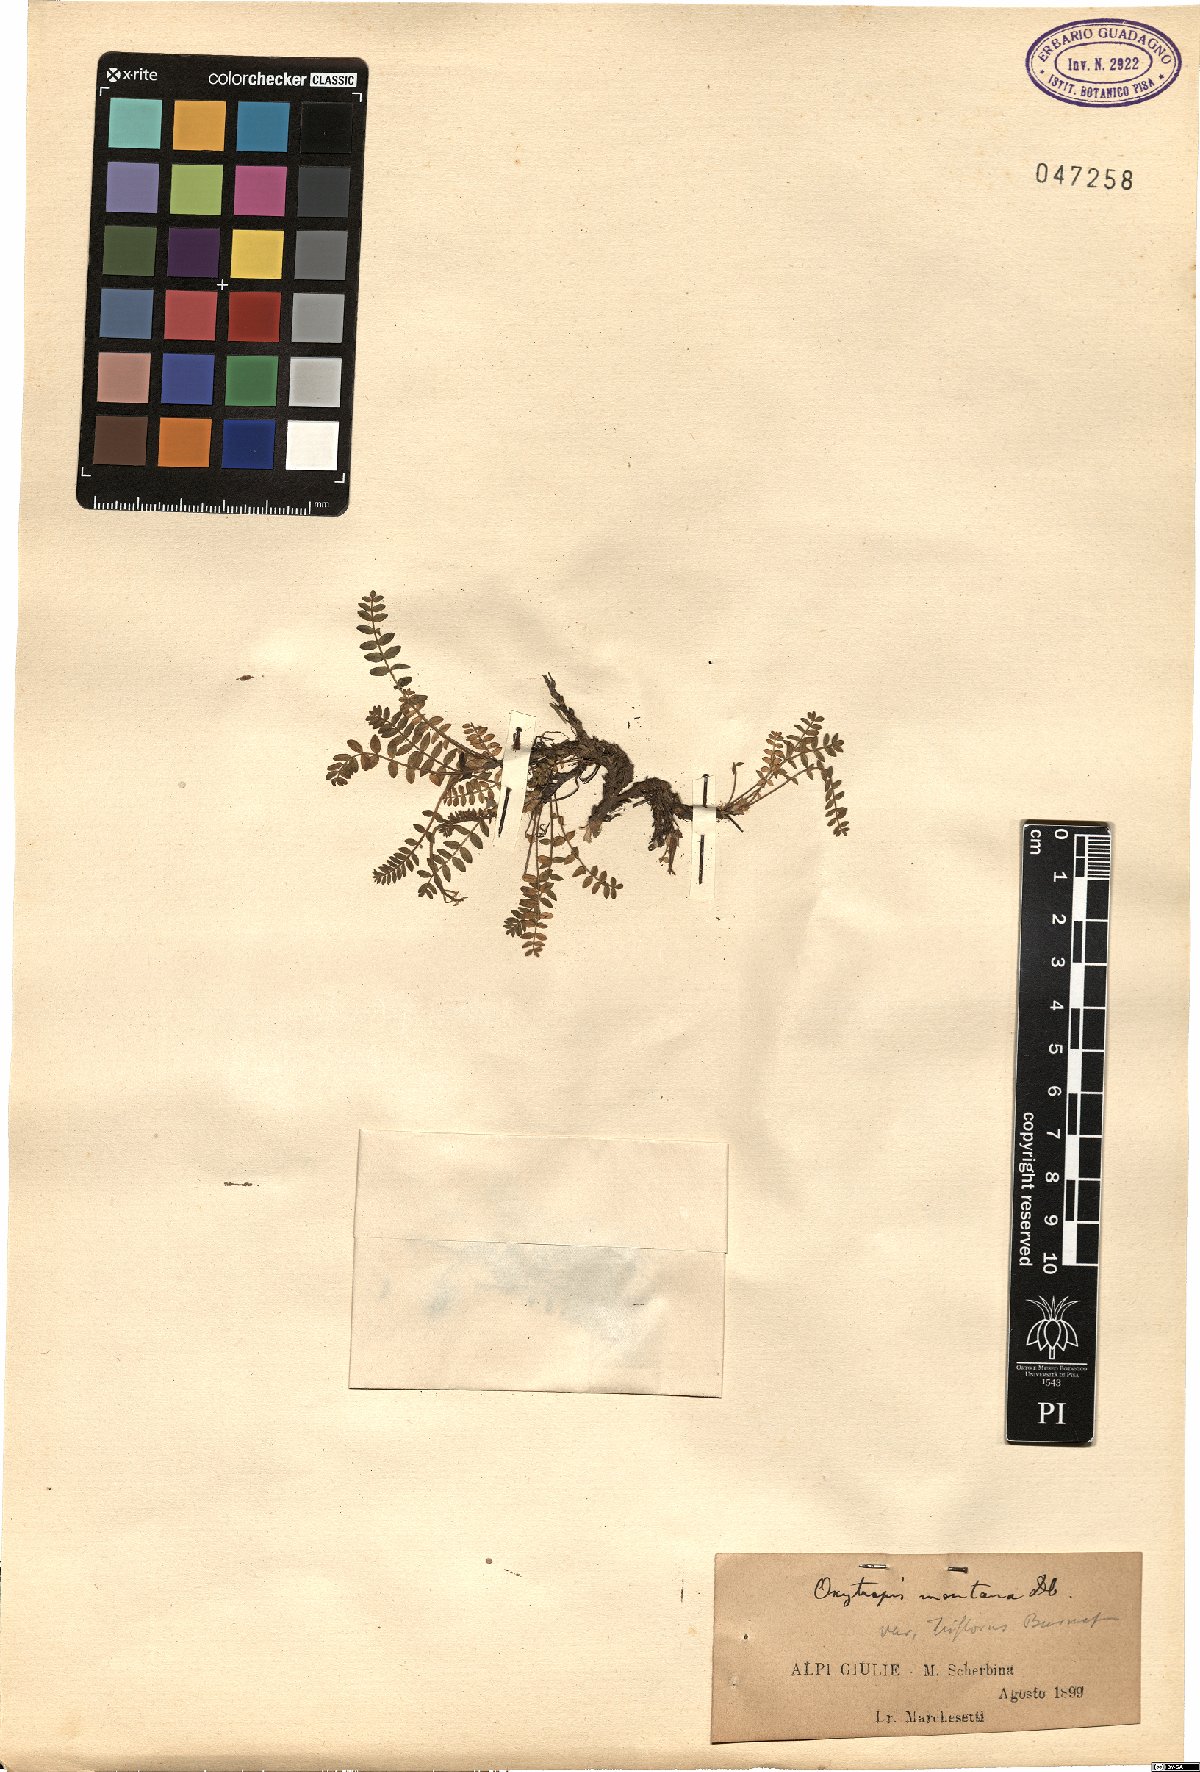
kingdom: Plantae
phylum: Tracheophyta
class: Magnoliopsida
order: Fabales
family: Fabaceae
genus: Oxytropis
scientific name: Oxytropis montana
